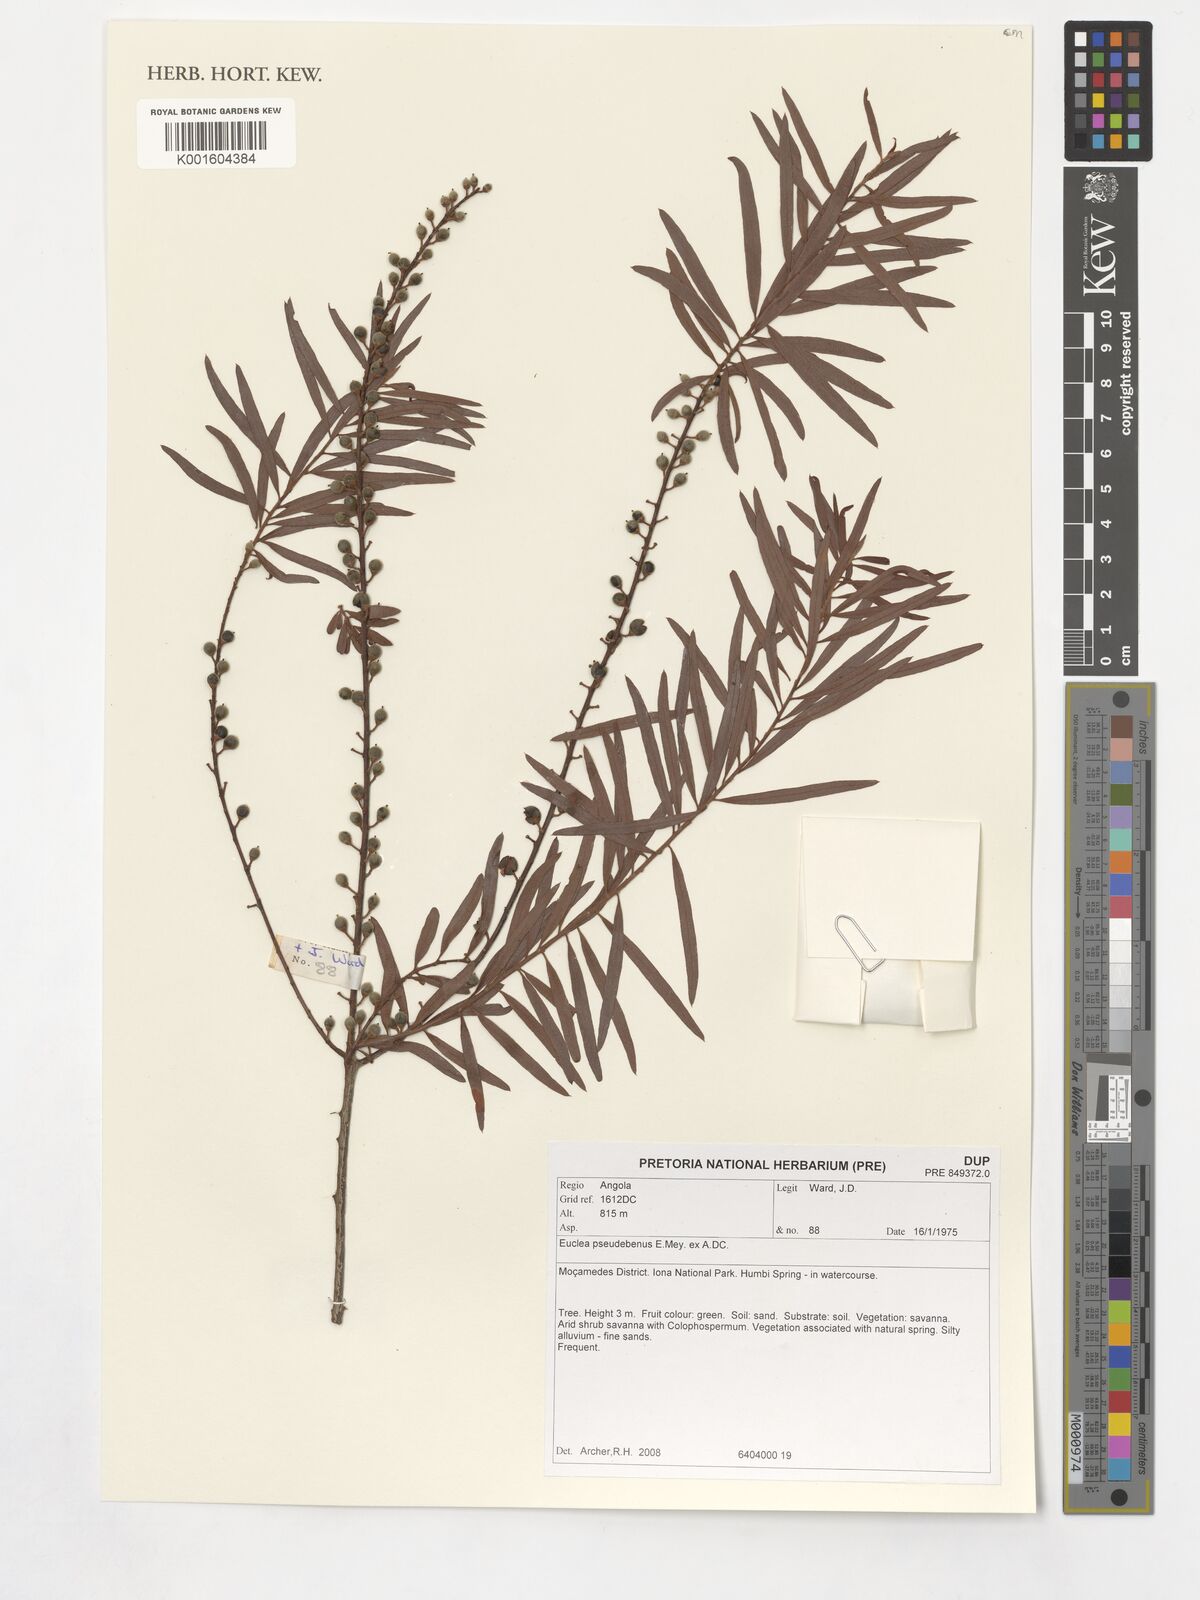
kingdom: Plantae
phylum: Tracheophyta
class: Magnoliopsida
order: Ericales
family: Ebenaceae
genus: Euclea
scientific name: Euclea pseudebenus
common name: Black ebony
